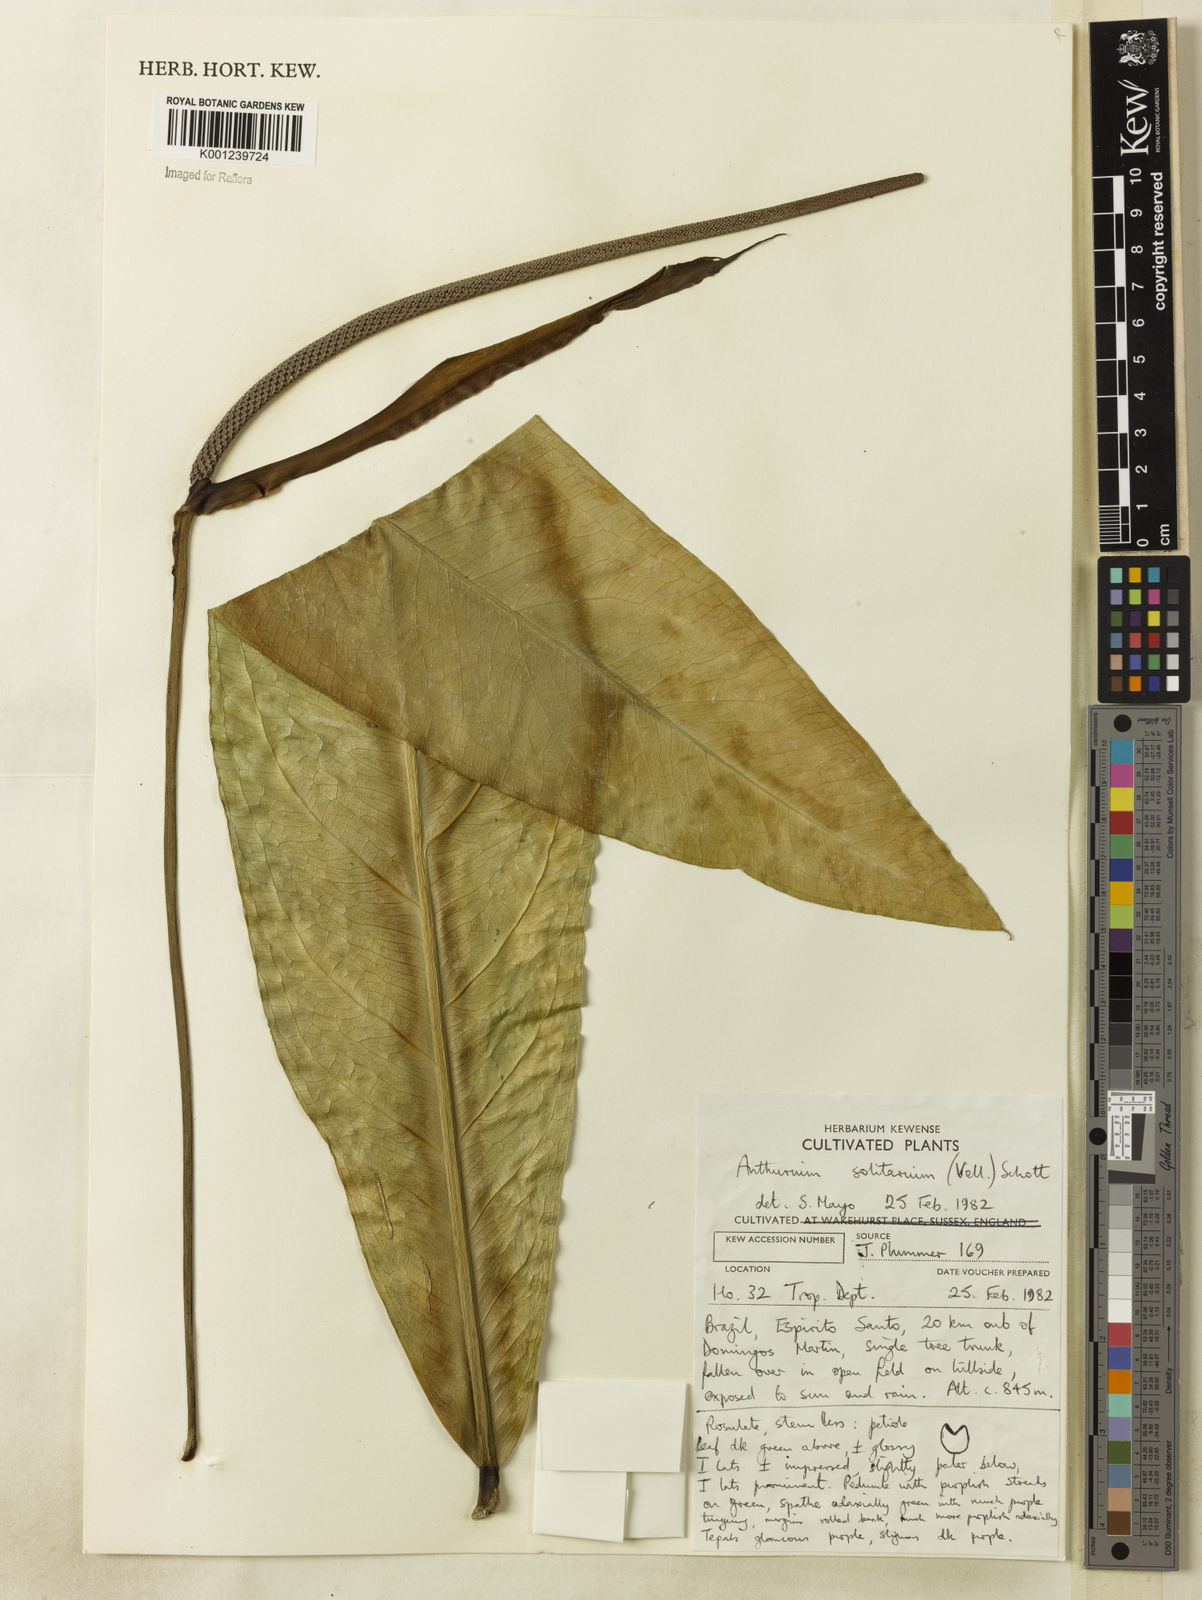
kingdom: Plantae
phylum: Tracheophyta
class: Liliopsida
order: Alismatales
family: Araceae
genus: Anthurium
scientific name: Anthurium solitarium
